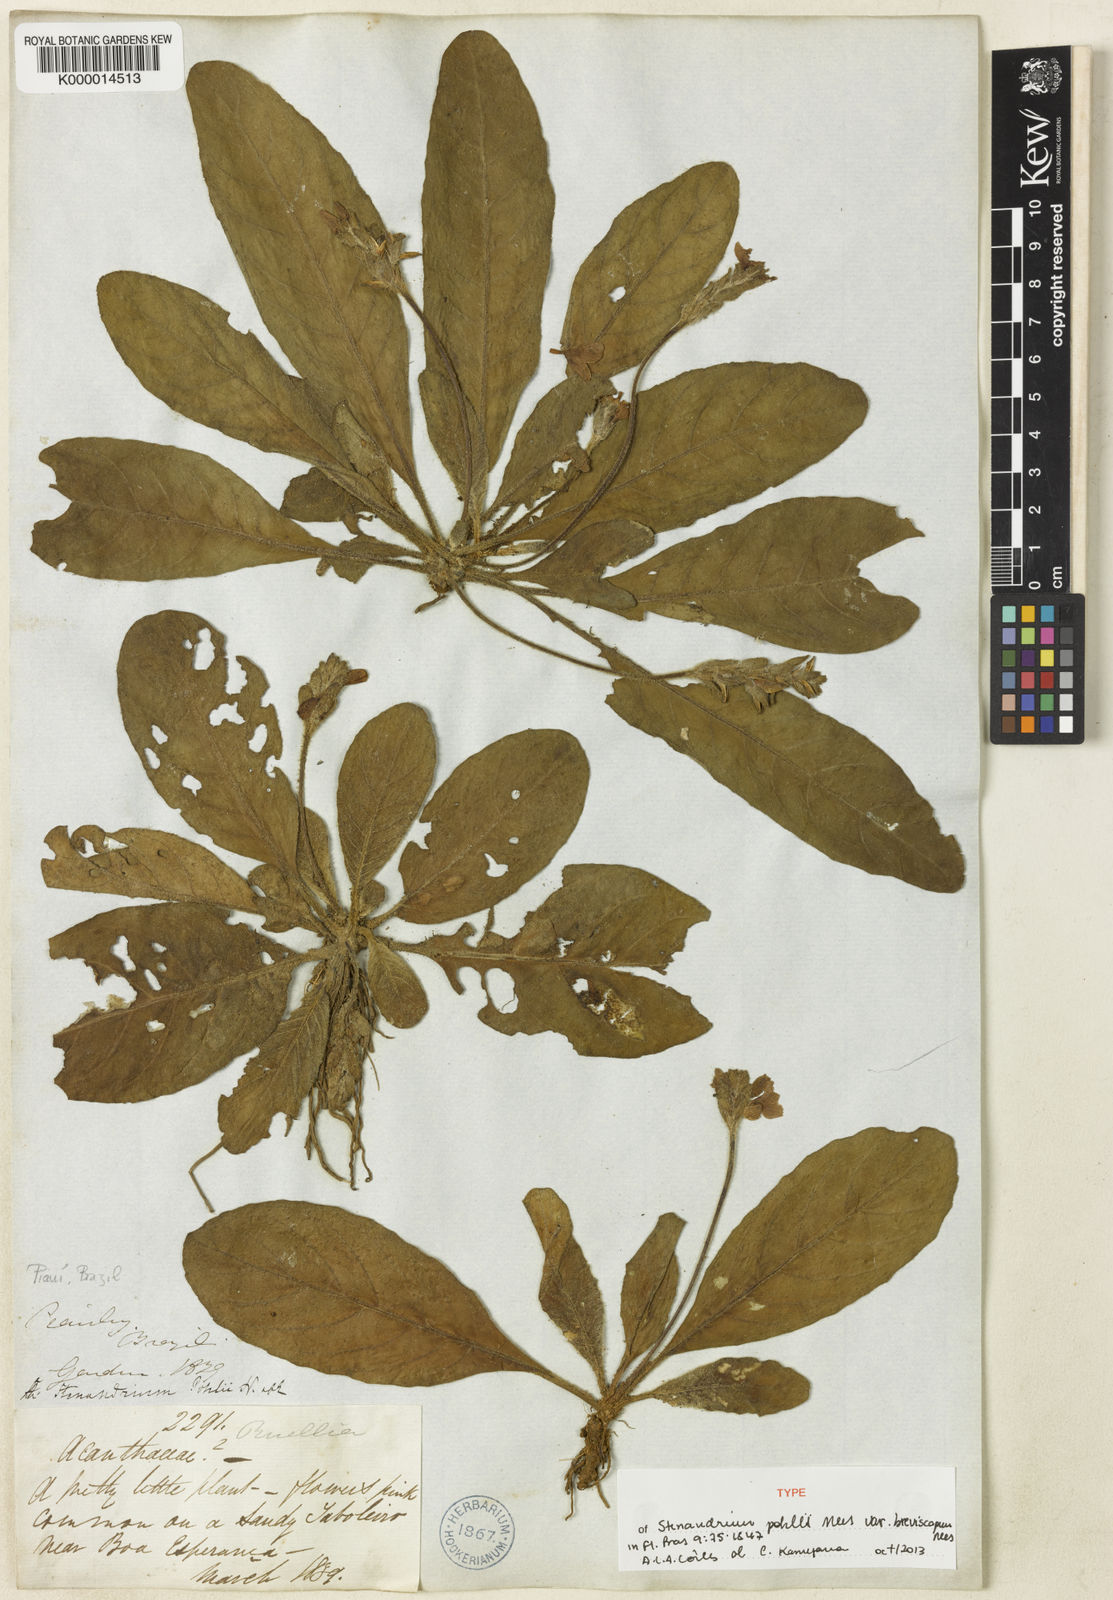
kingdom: Plantae
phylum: Tracheophyta
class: Magnoliopsida
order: Lamiales
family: Acanthaceae
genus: Stenandrium
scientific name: Stenandrium pohlii
